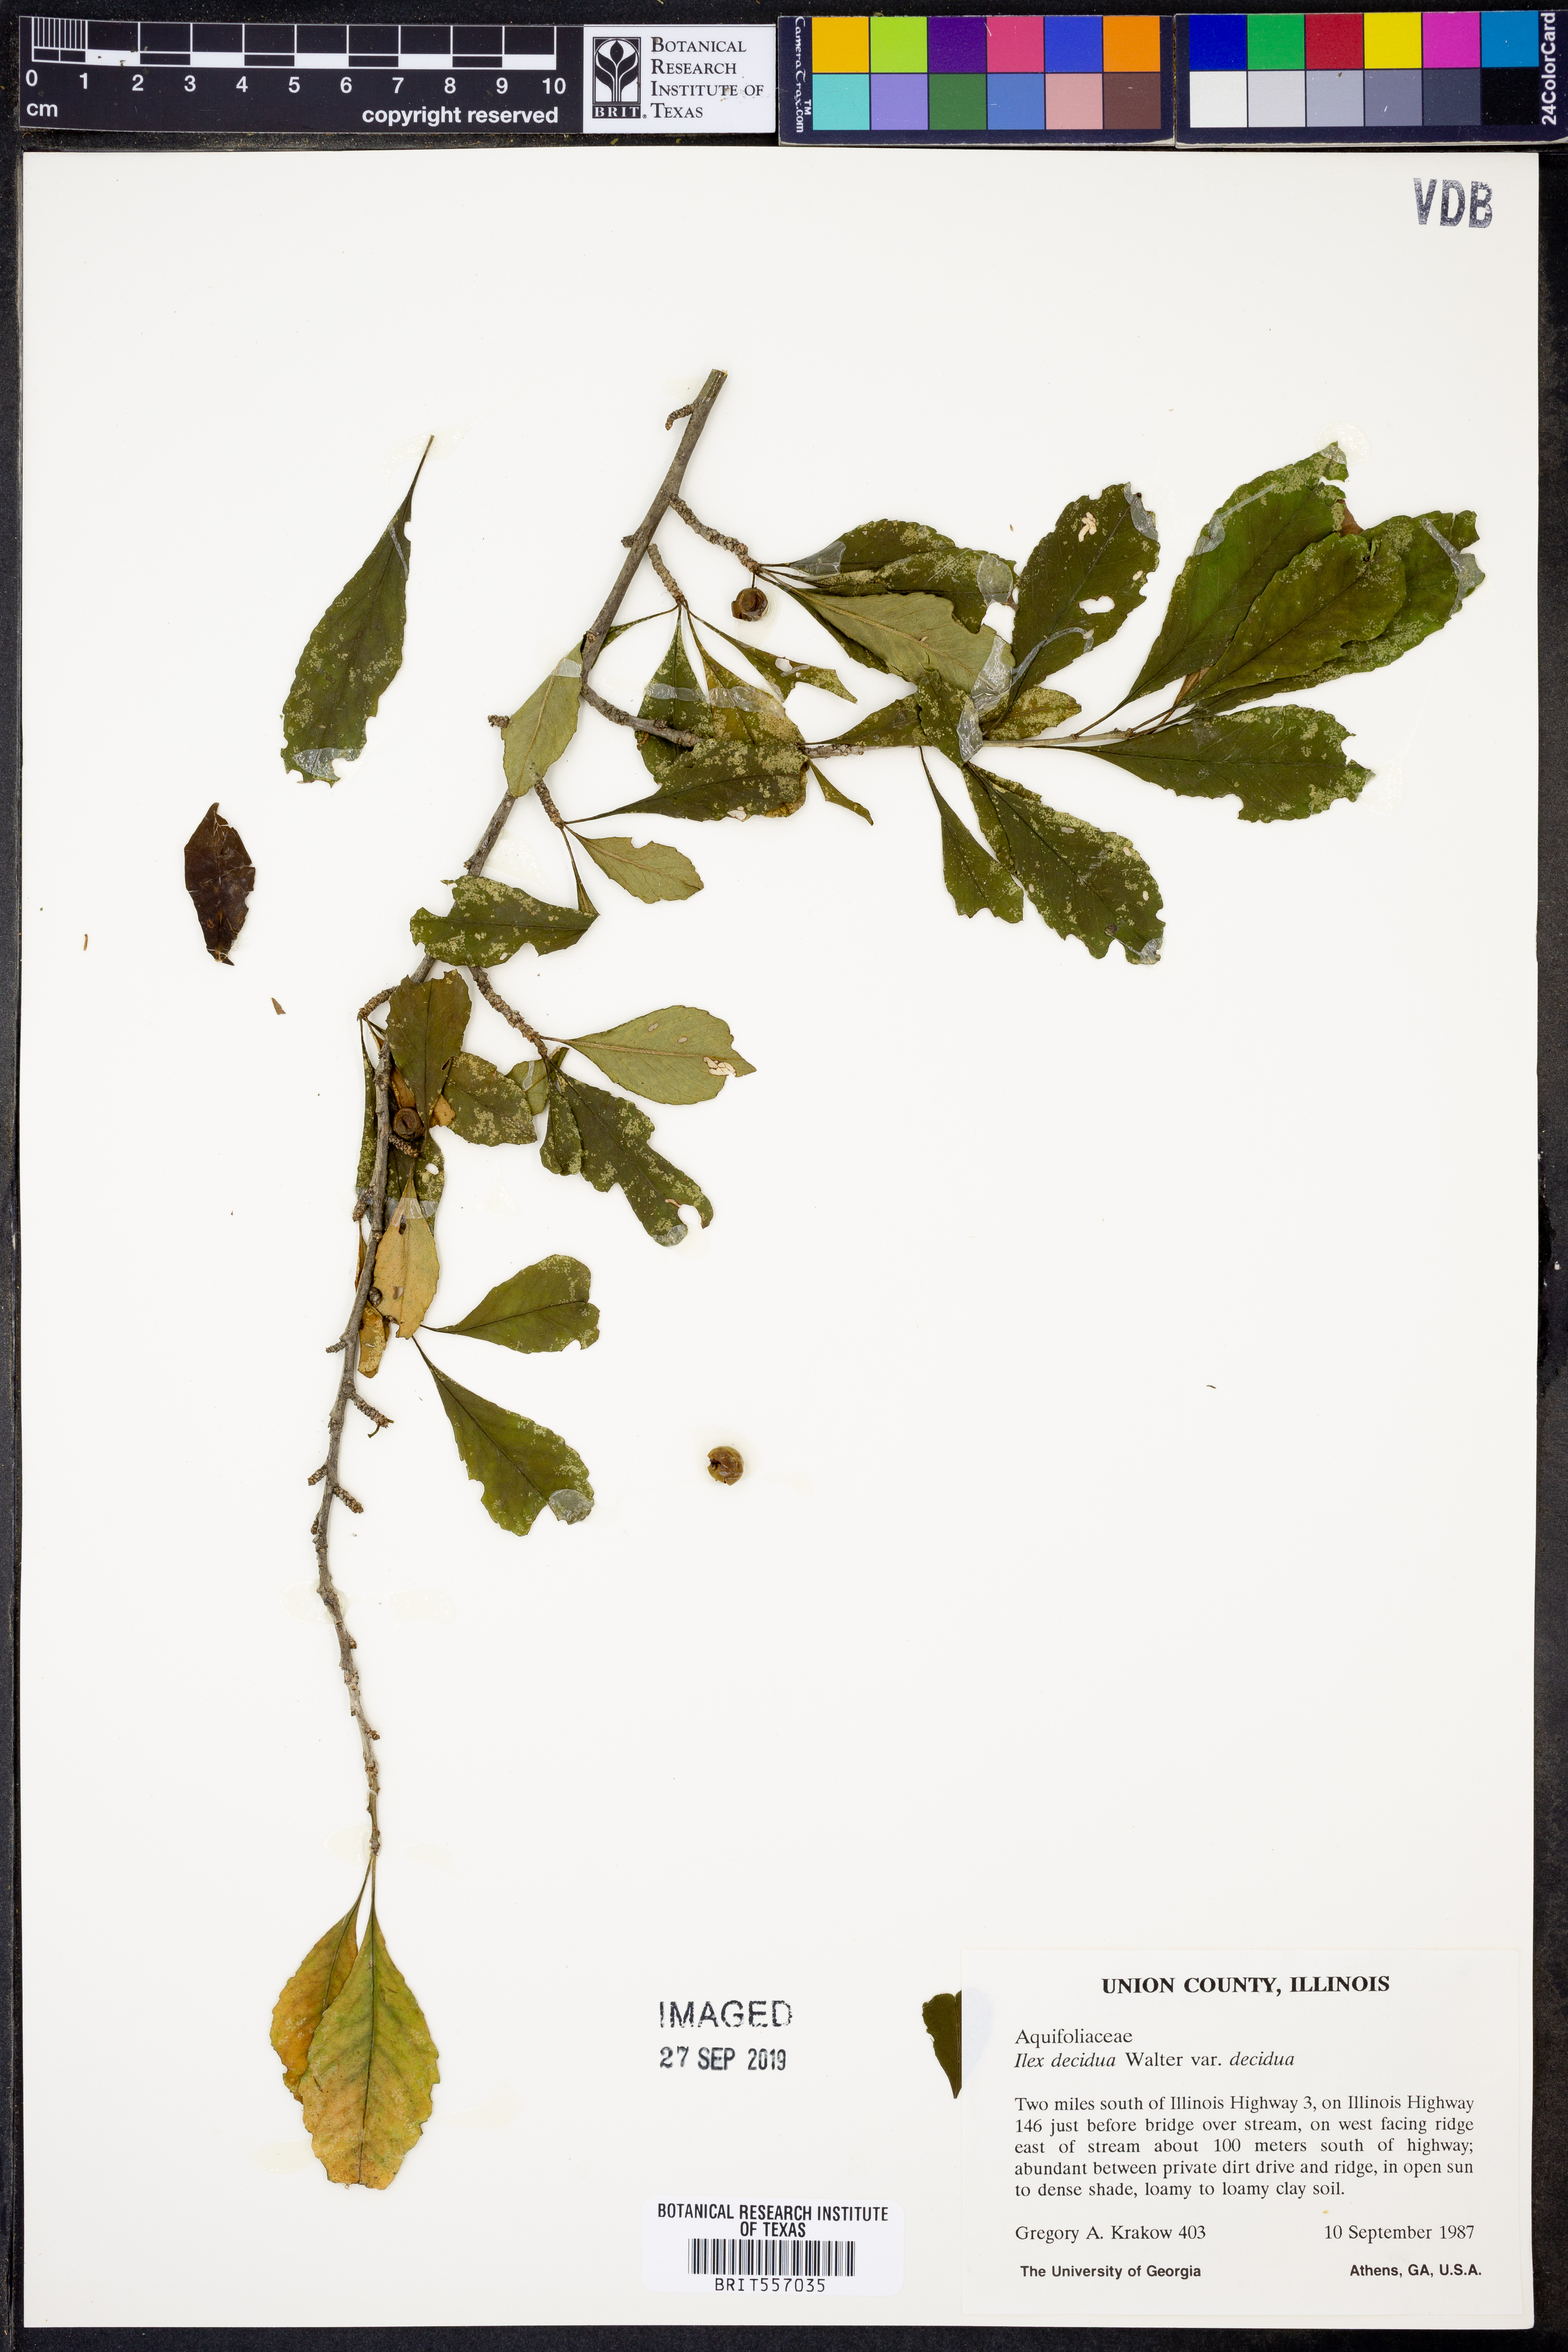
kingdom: Plantae
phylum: Tracheophyta
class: Magnoliopsida
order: Aquifoliales
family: Aquifoliaceae
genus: Ilex
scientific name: Ilex decidua
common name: Possum-haw
